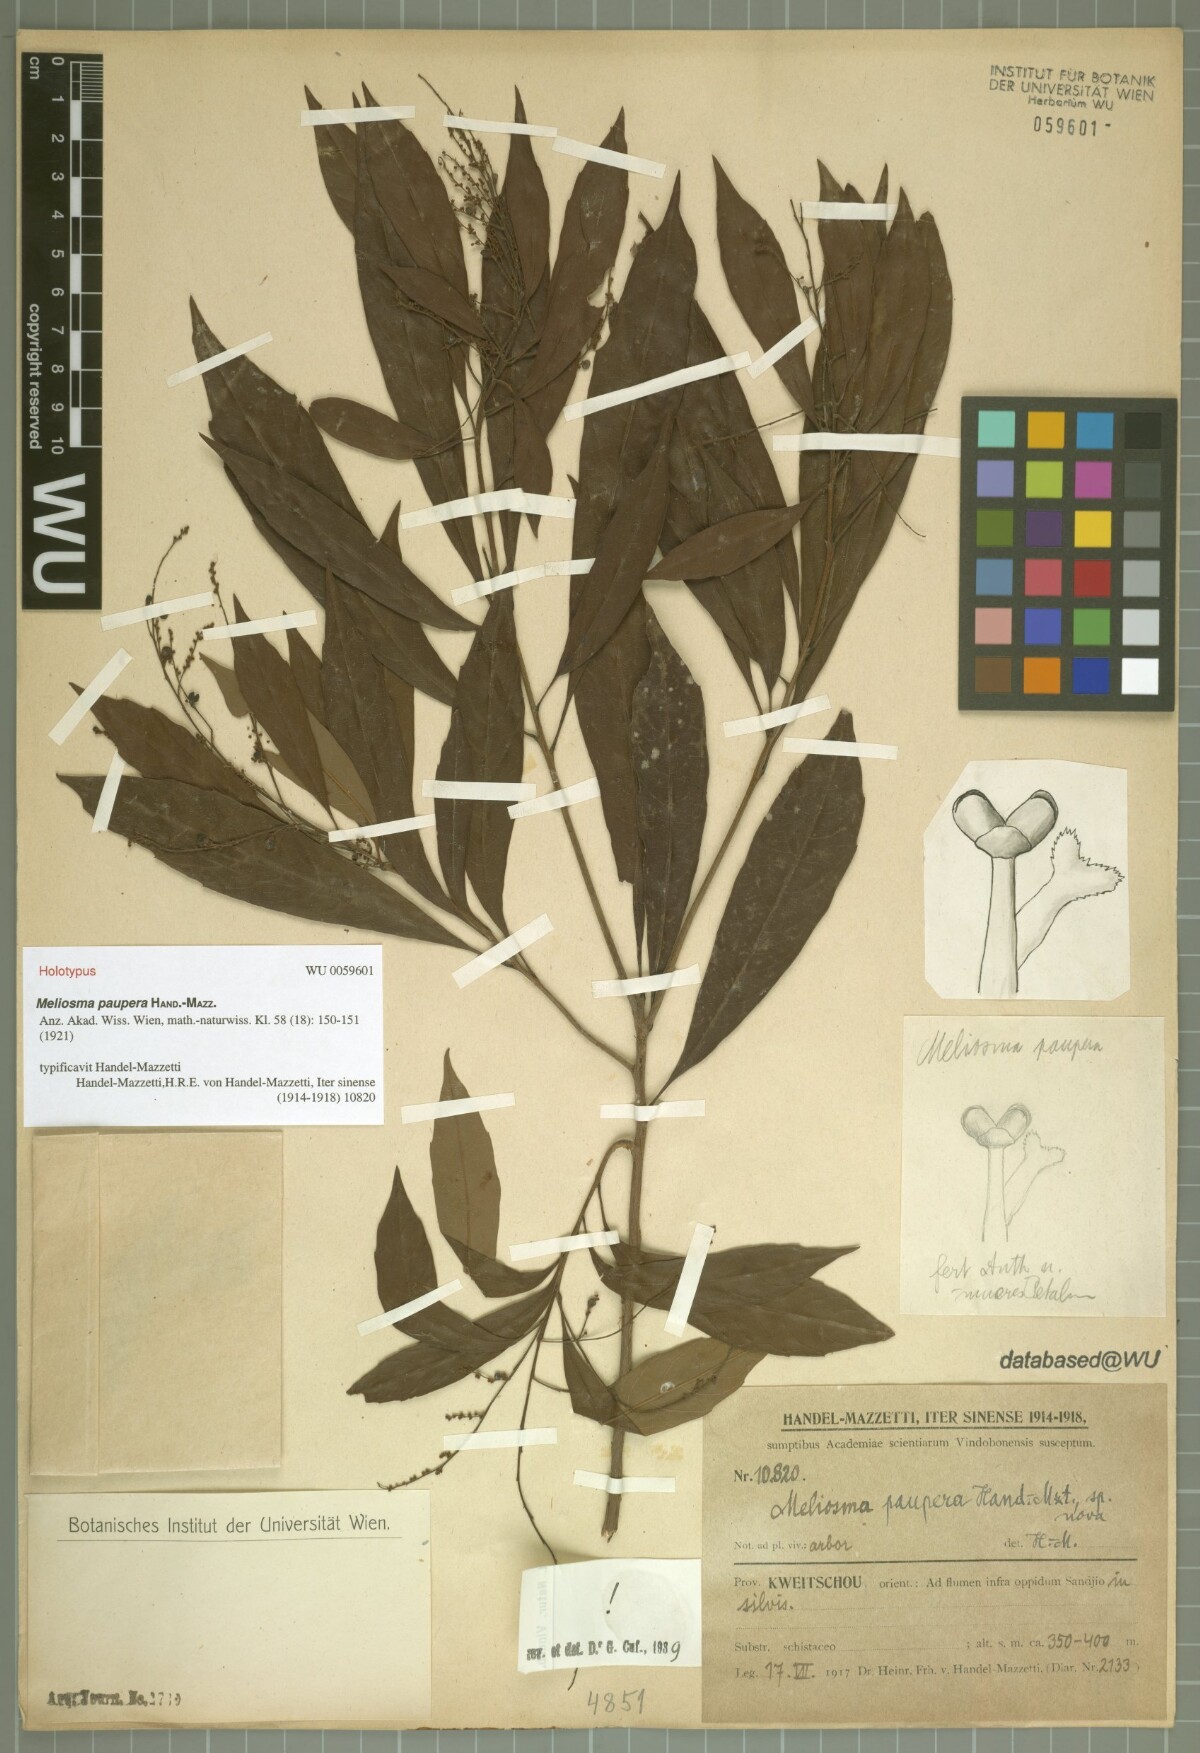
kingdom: Plantae
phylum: Tracheophyta
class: Magnoliopsida
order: Proteales
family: Sabiaceae
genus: Meliosma
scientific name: Meliosma paupera
